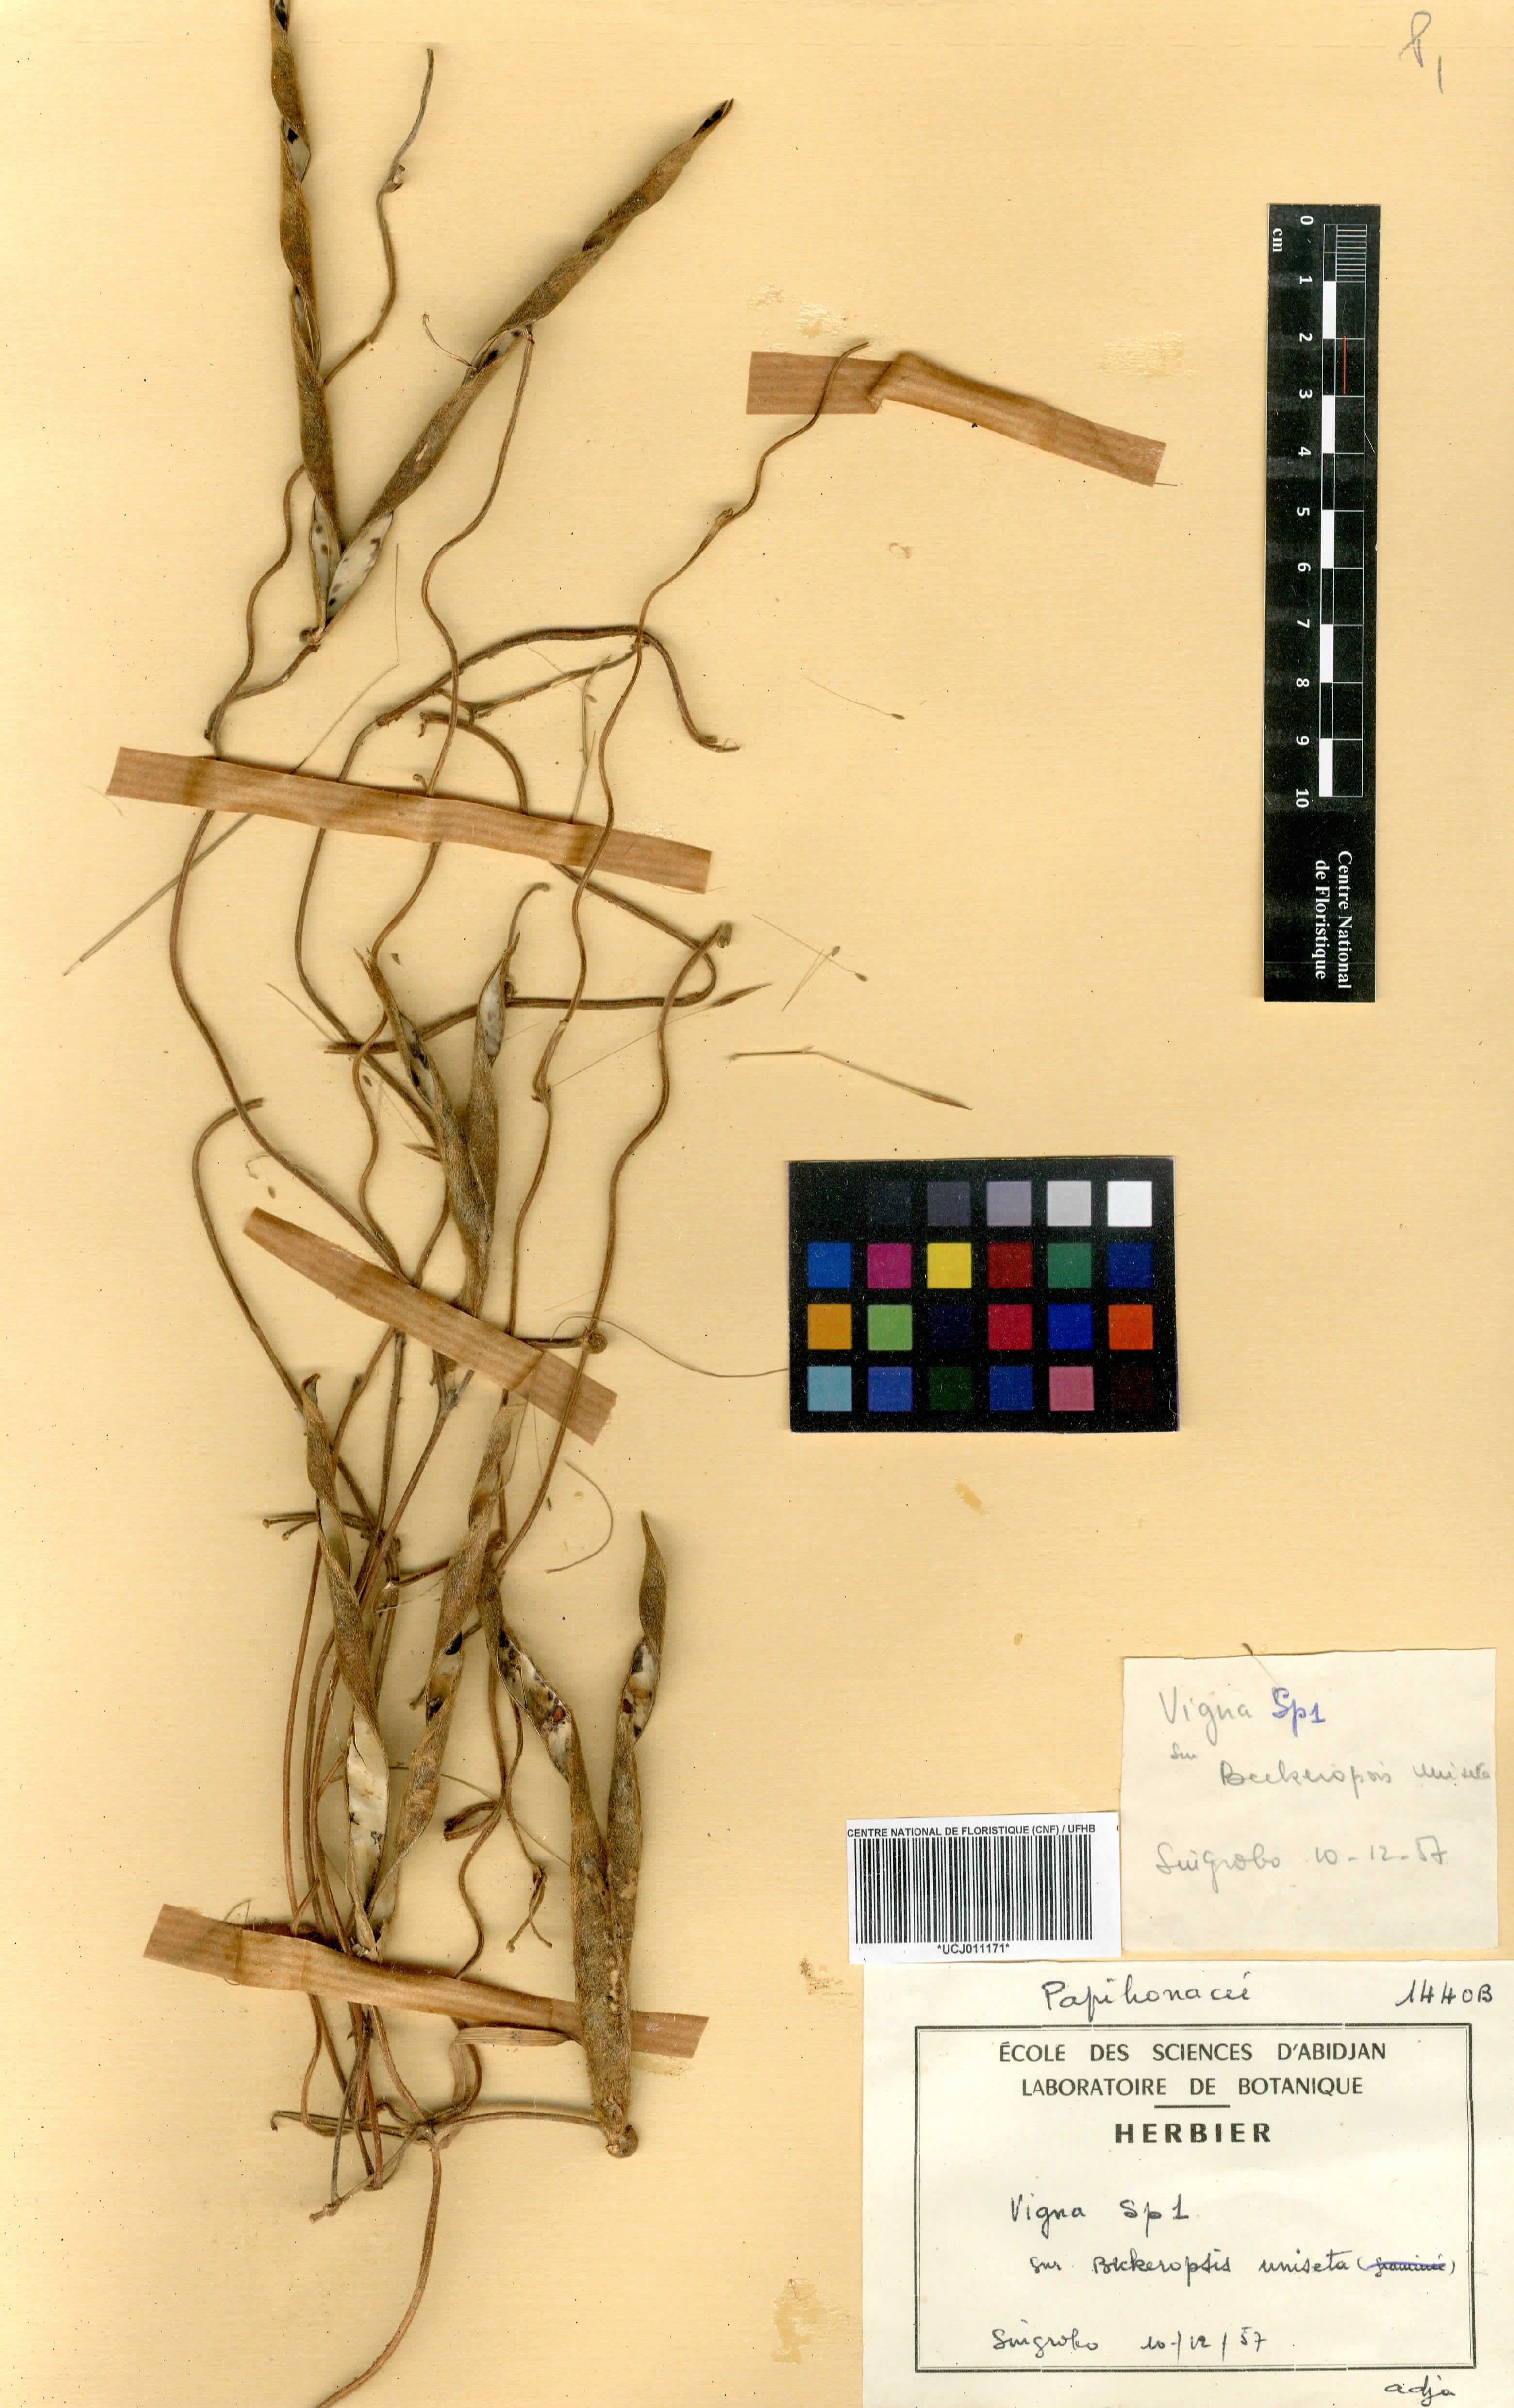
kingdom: Plantae
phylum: Tracheophyta
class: Magnoliopsida
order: Fabales
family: Fabaceae
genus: Vigna
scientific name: Vigna
